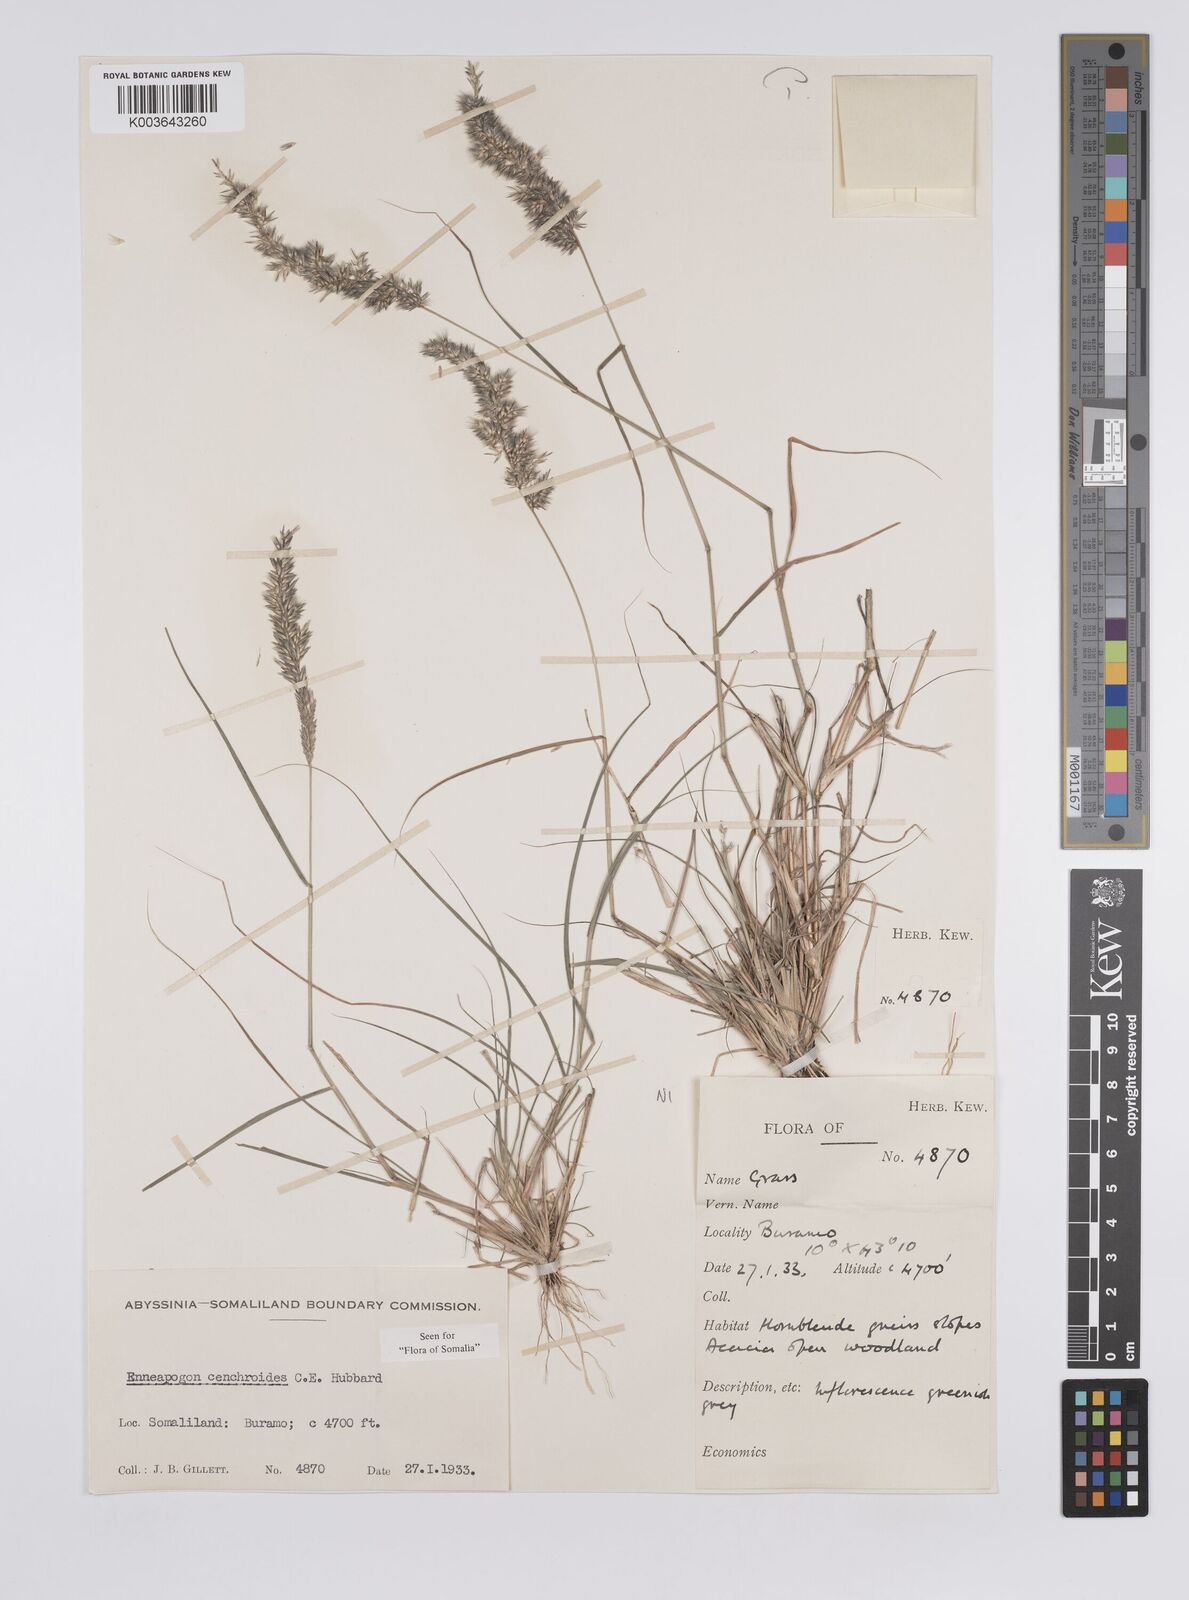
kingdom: Plantae
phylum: Tracheophyta
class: Liliopsida
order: Poales
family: Poaceae
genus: Enneapogon
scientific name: Enneapogon cenchroides
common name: Soft feather pappusgrass
